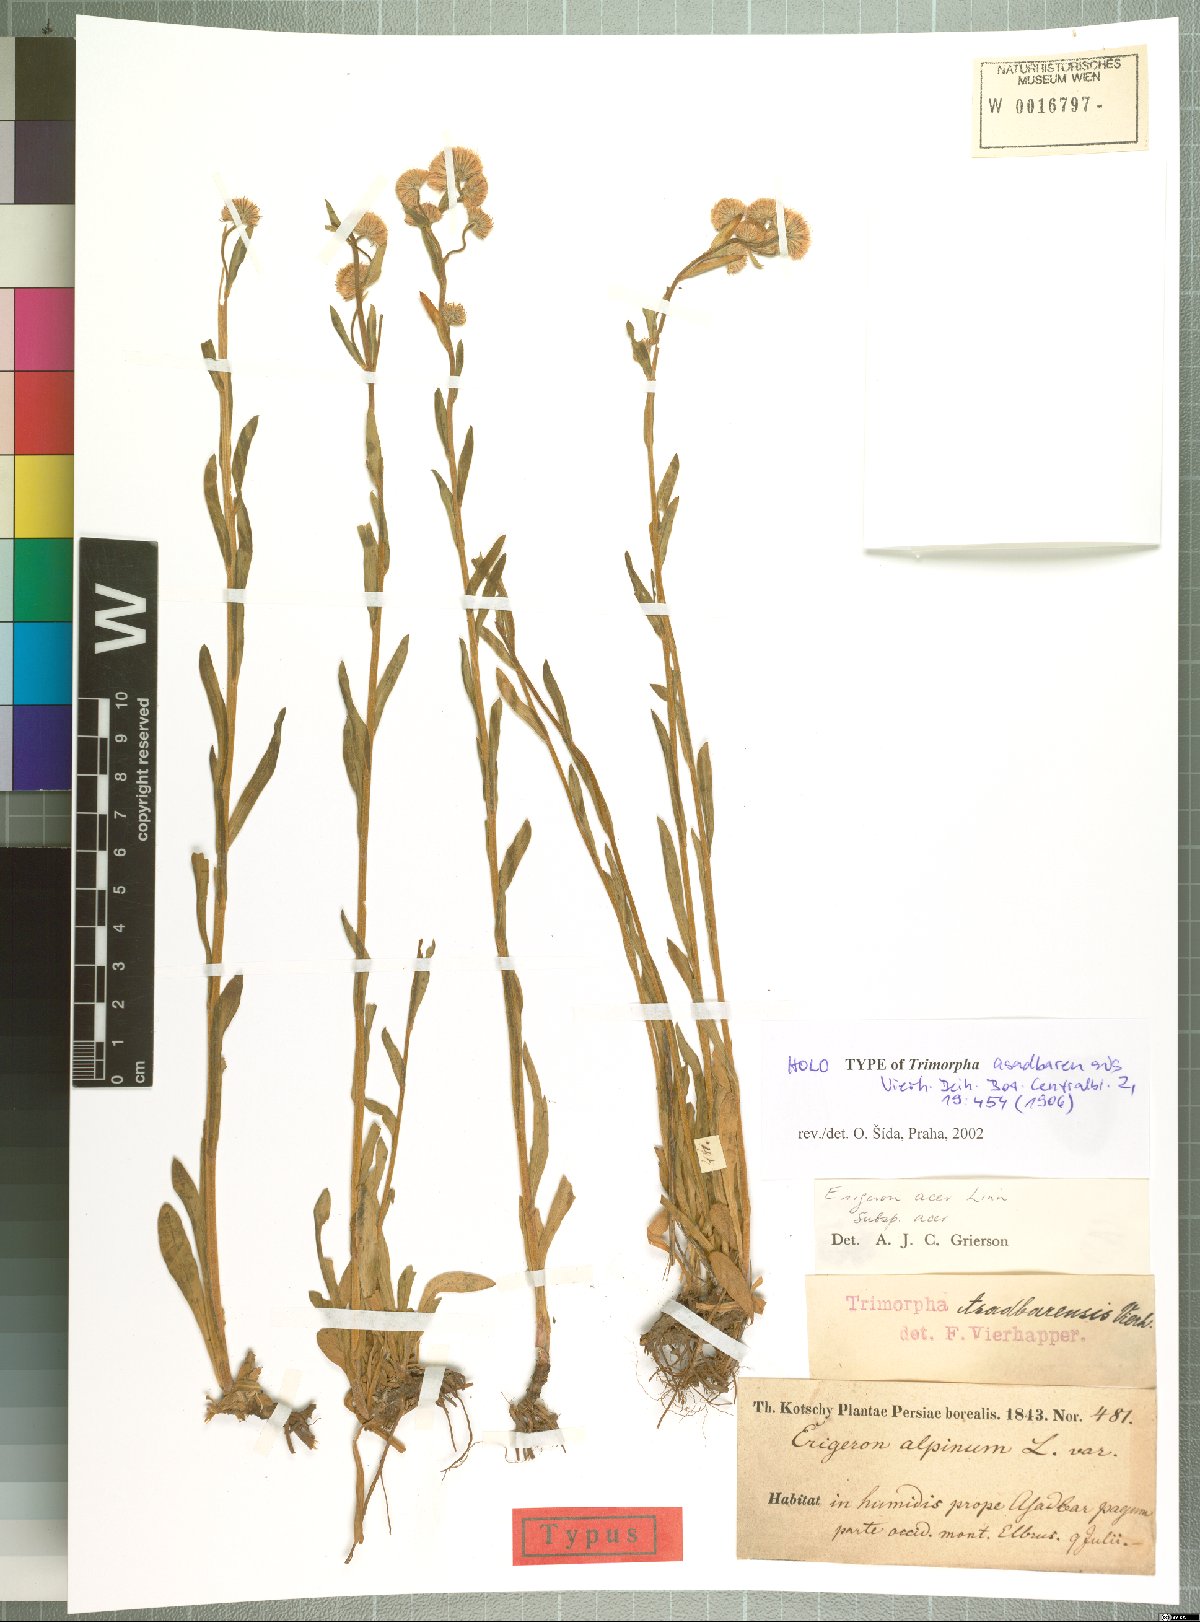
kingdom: Plantae
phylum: Tracheophyta
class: Magnoliopsida
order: Asterales
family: Asteraceae
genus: Erigeron
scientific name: Erigeron acris
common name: Blue fleabane
